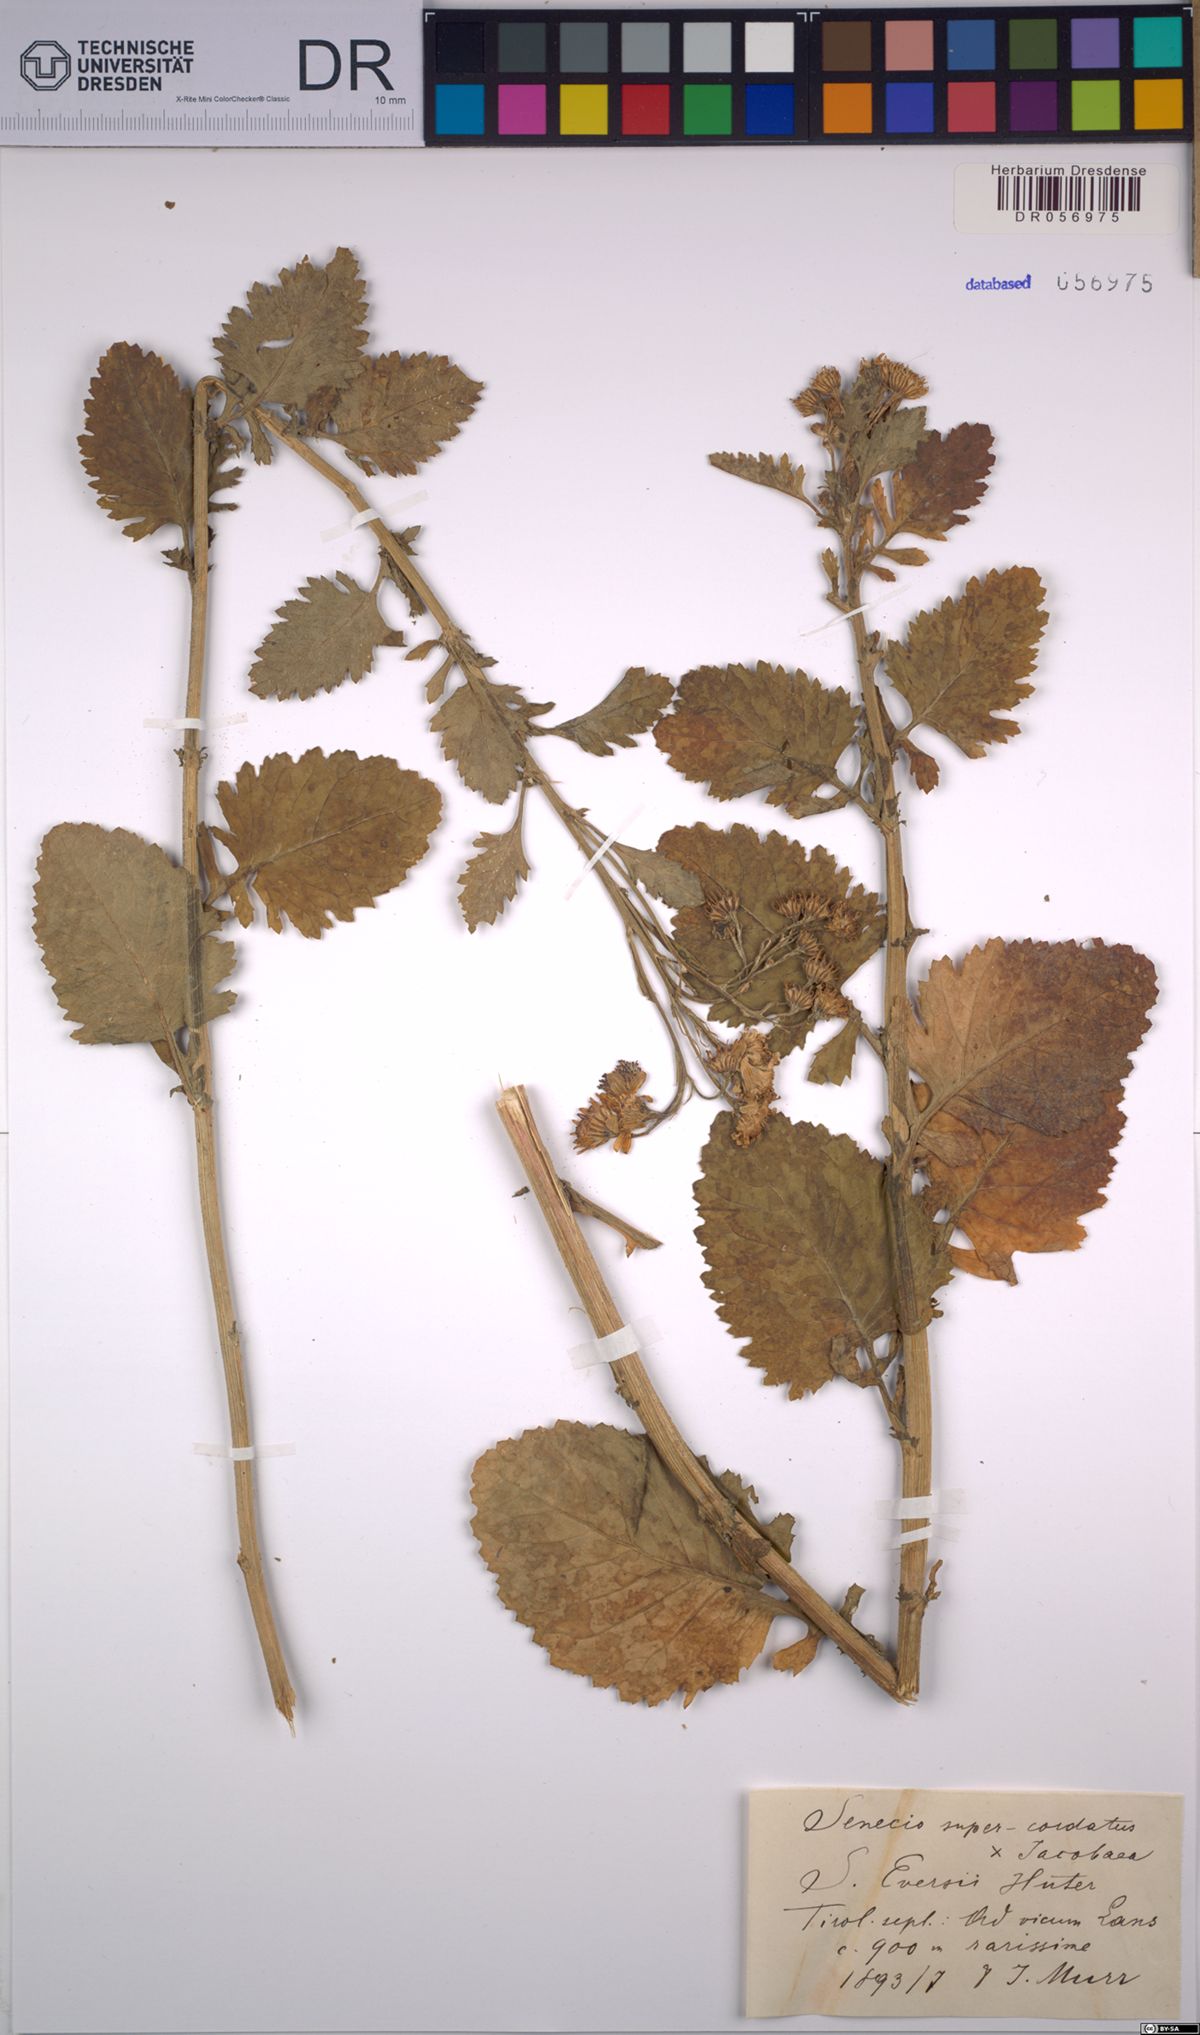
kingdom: Plantae
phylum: Tracheophyta
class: Magnoliopsida
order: Asterales
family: Asteraceae
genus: Jacobaea
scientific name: Jacobaea vulgaris
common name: Stinking willie
